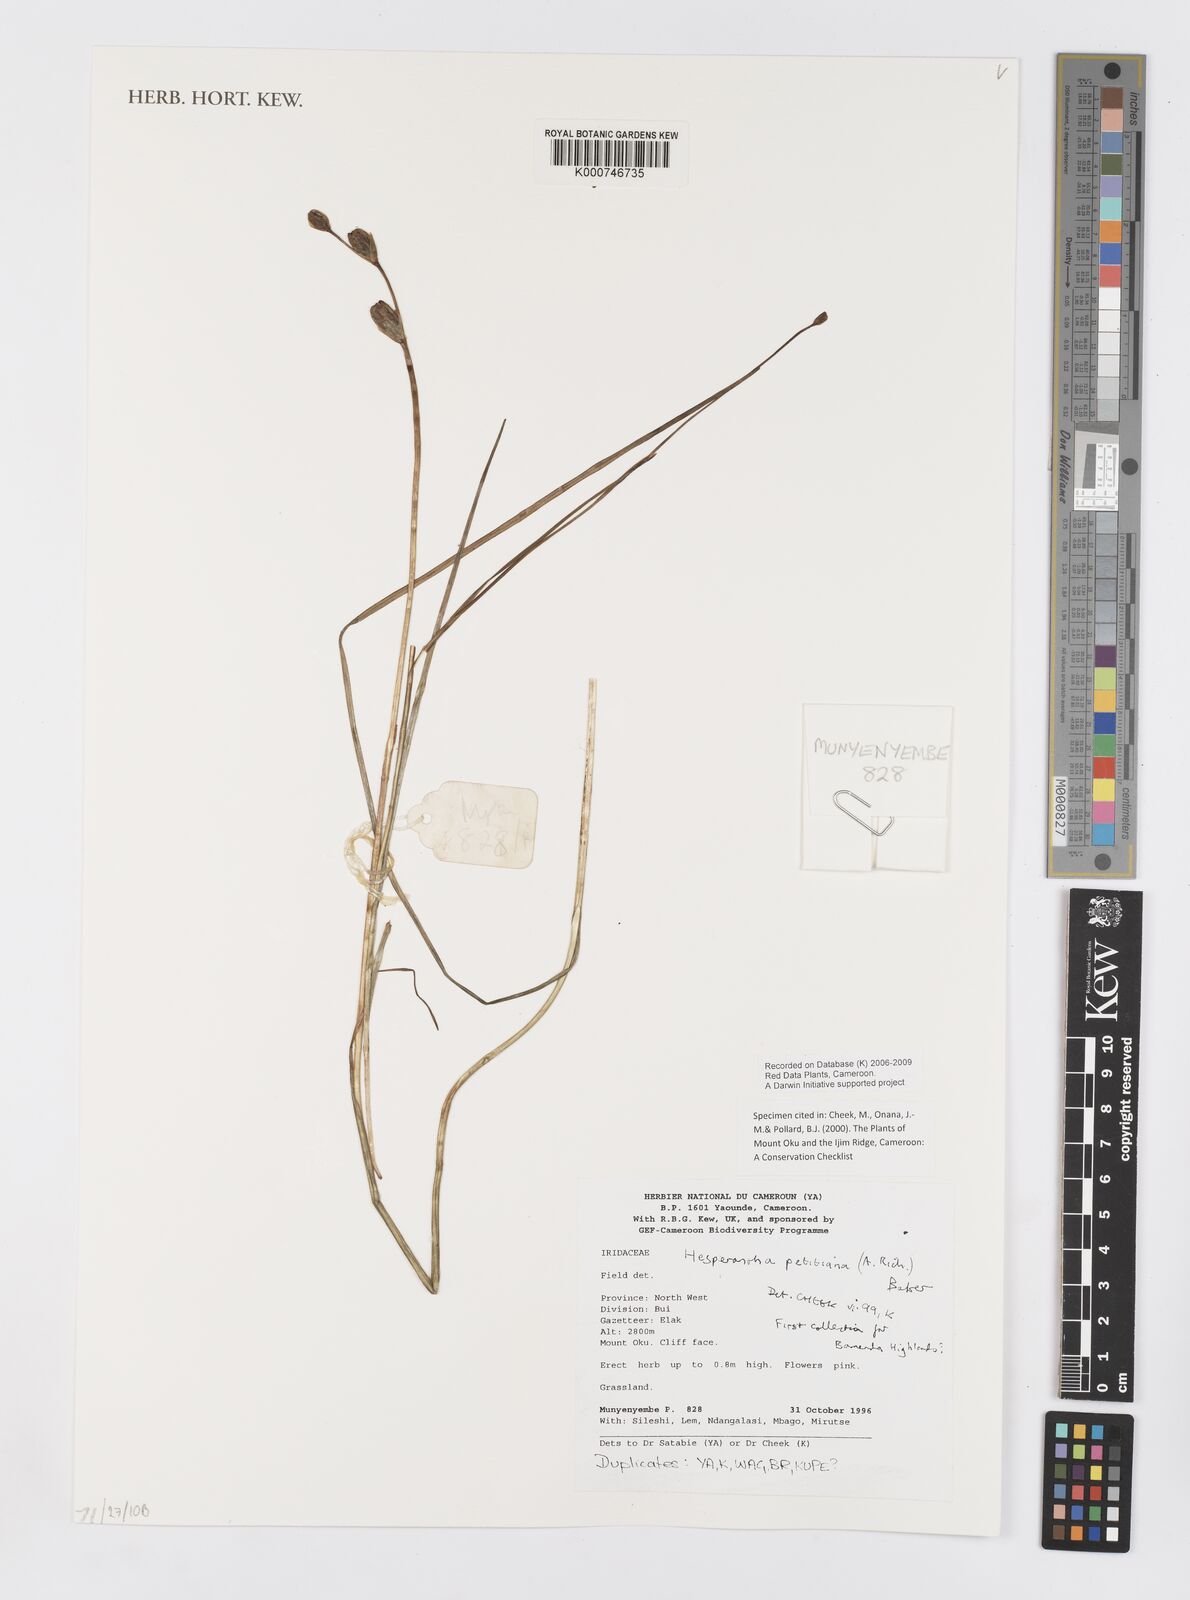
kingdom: Plantae
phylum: Tracheophyta
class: Liliopsida
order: Asparagales
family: Iridaceae
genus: Hesperantha
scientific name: Hesperantha petitiana
